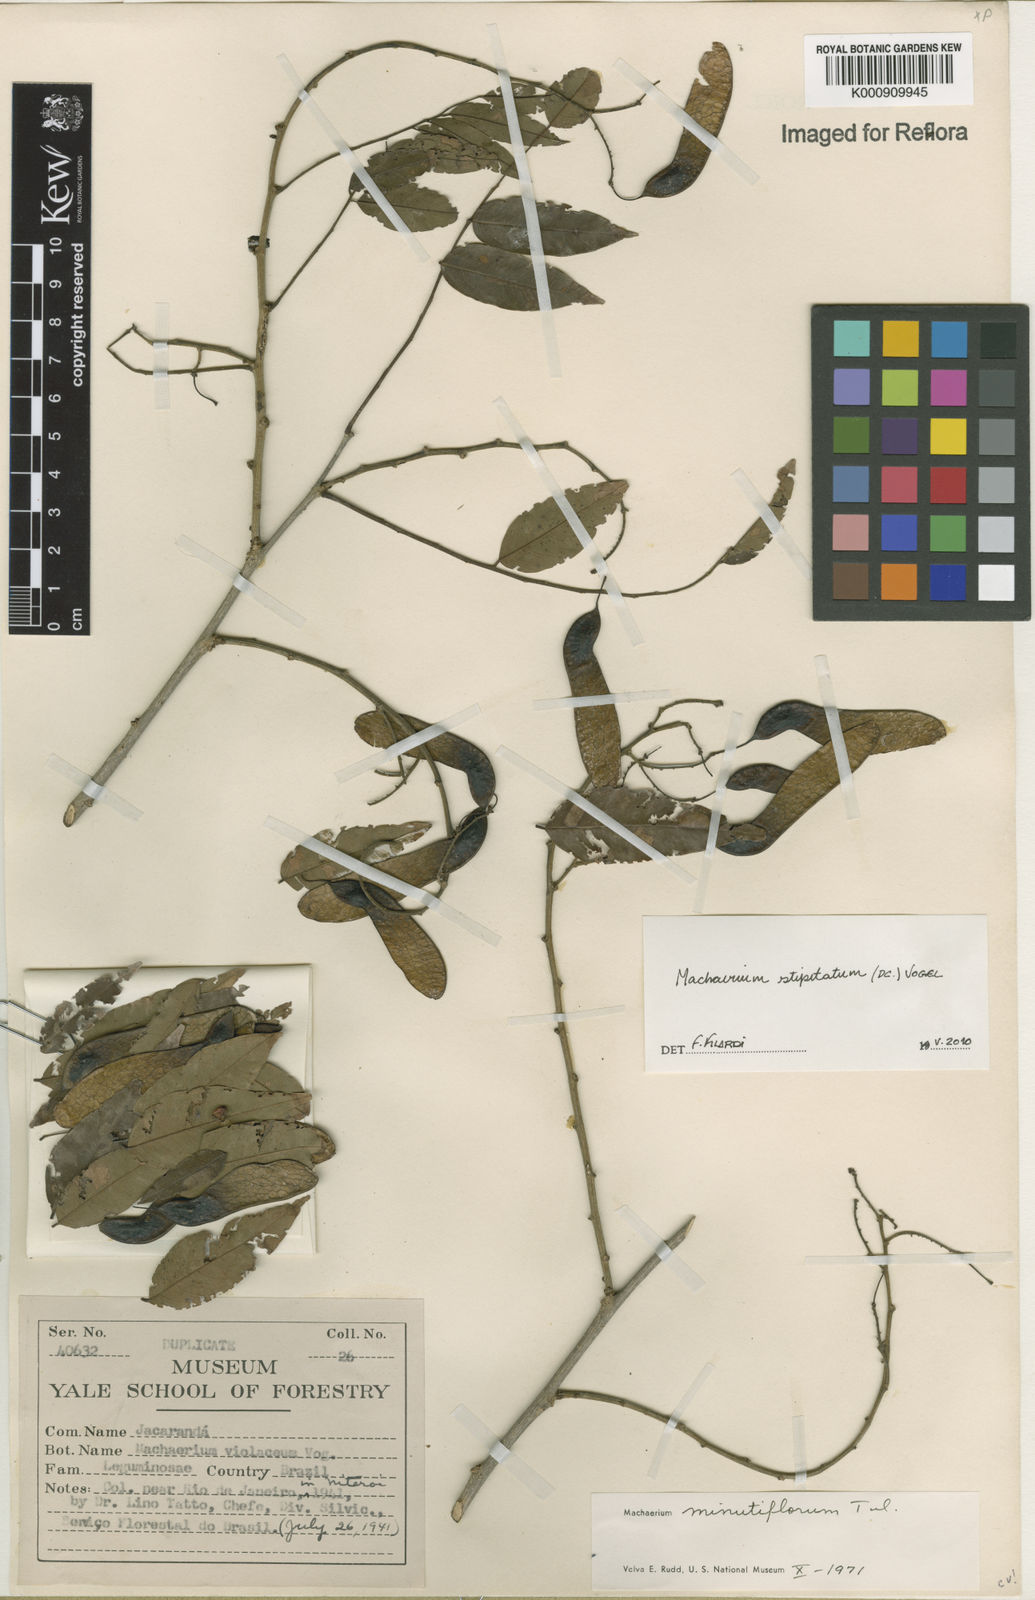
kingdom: Plantae
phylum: Tracheophyta
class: Magnoliopsida
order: Fabales
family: Fabaceae
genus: Machaerium
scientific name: Machaerium stipitatum
